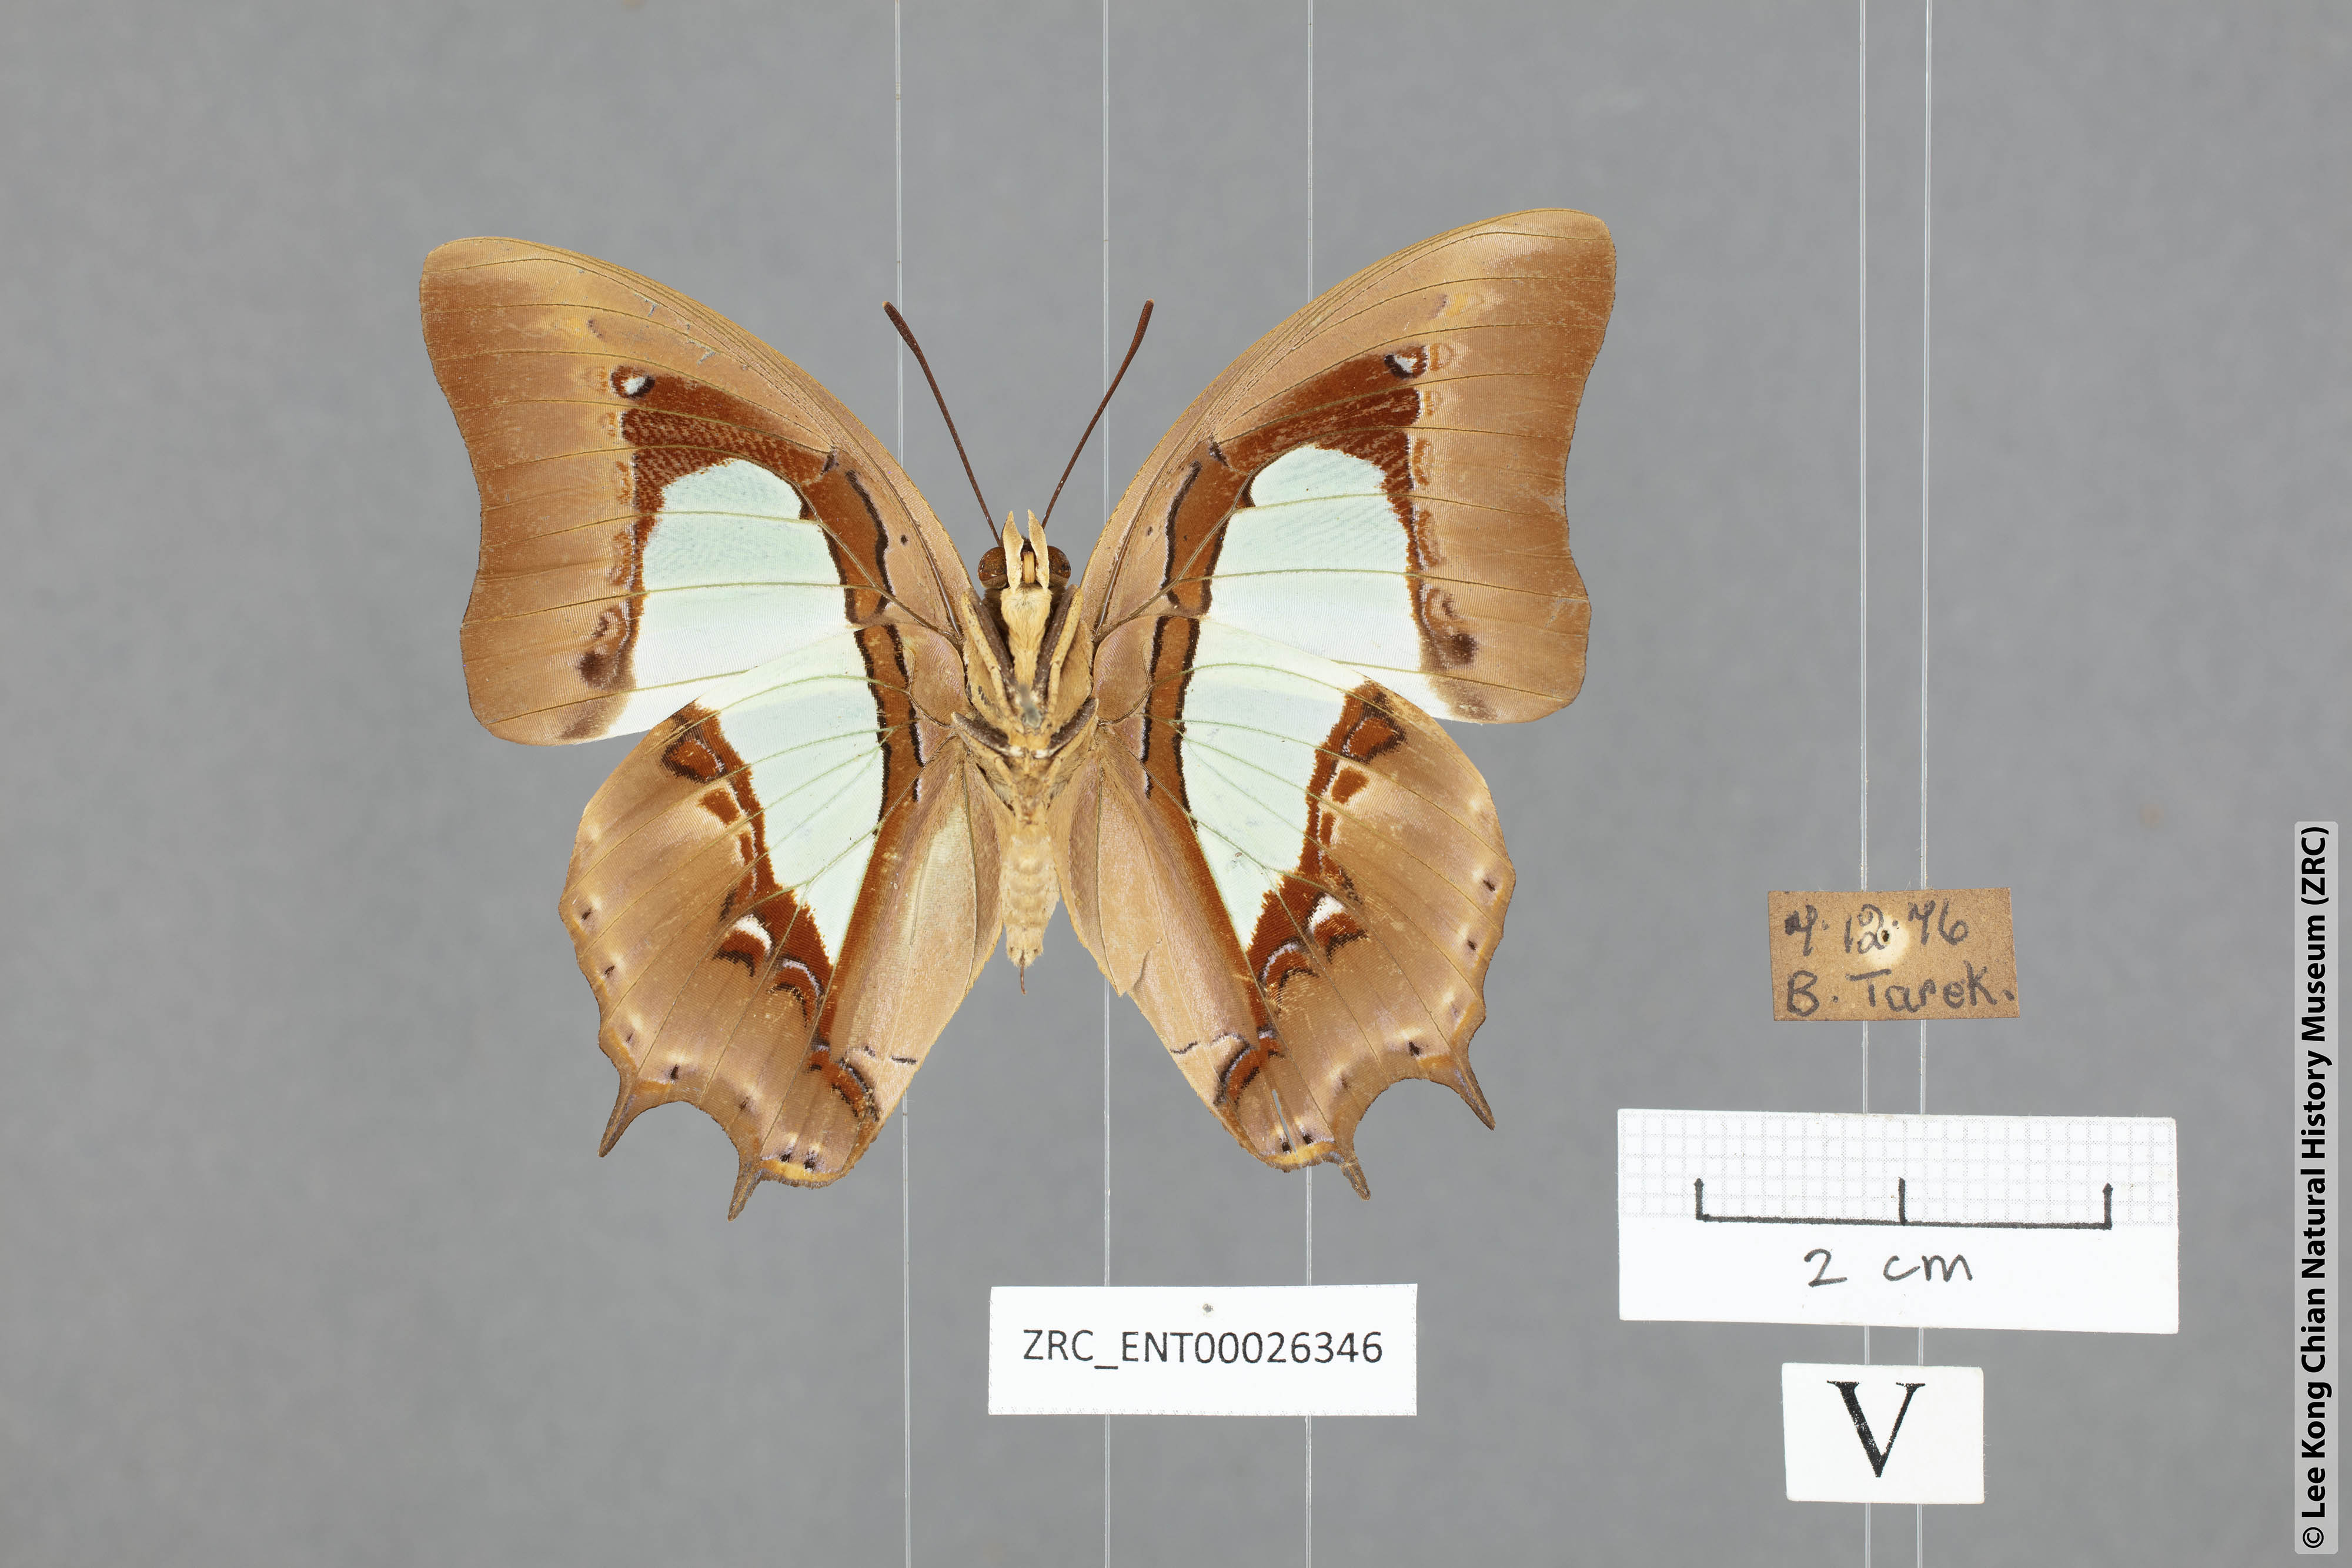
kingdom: Animalia
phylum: Arthropoda
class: Insecta
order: Lepidoptera
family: Nymphalidae
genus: Polyura
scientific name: Polyura hebe
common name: Plain nawab
